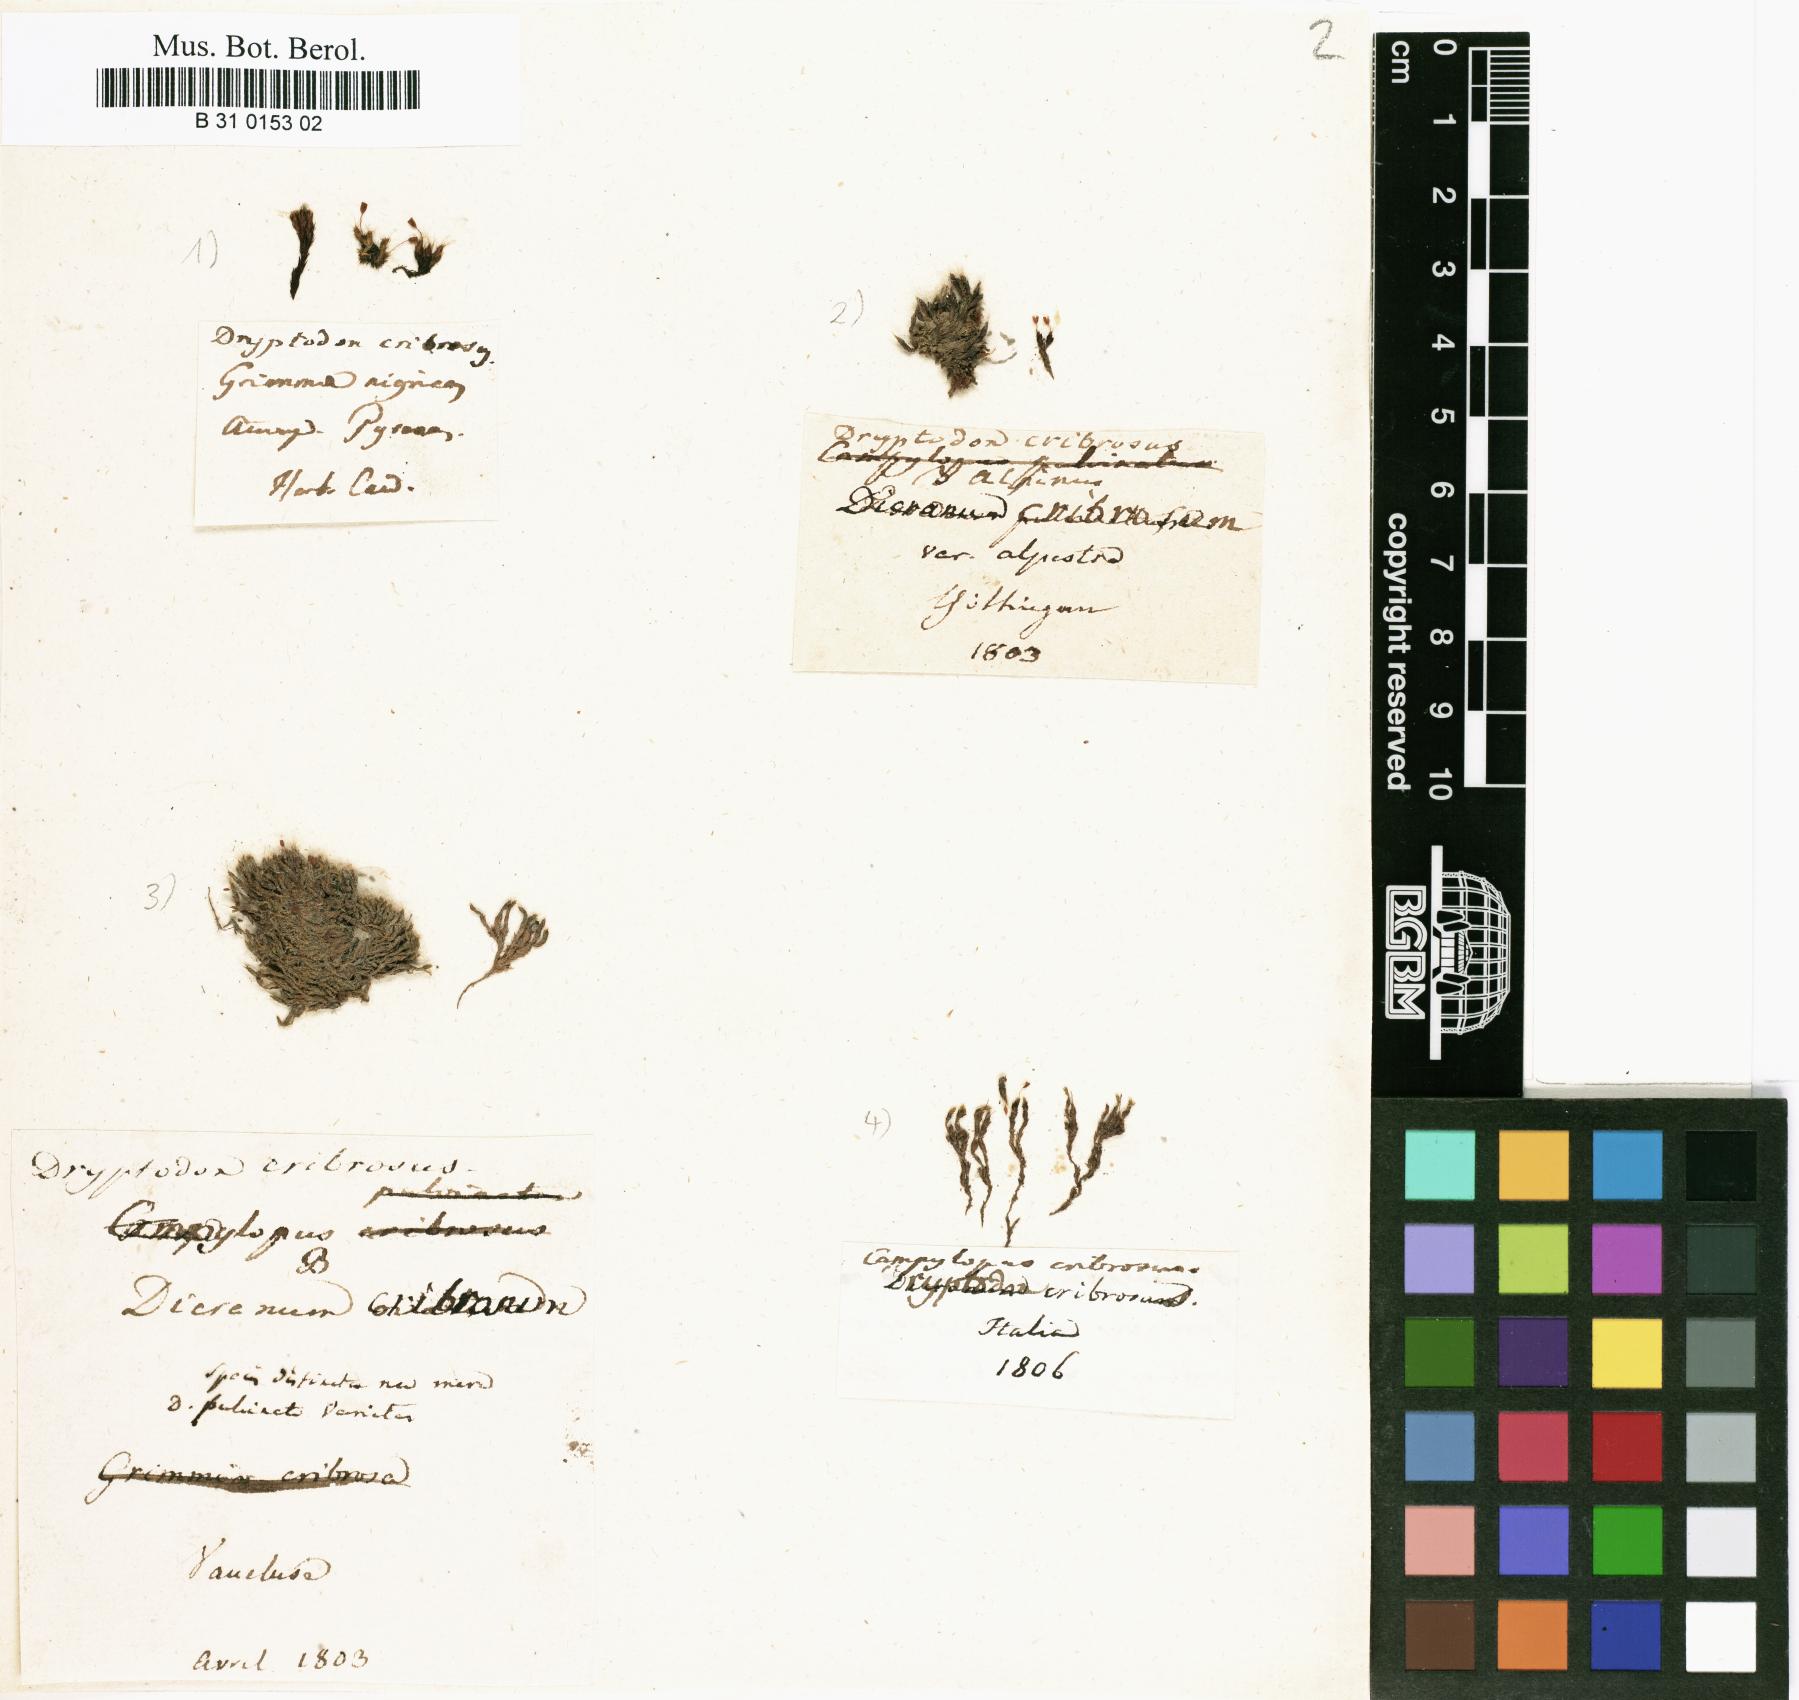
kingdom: Plantae
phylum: Bryophyta
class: Bryopsida
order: Grimmiales
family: Grimmiaceae
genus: Grimmia
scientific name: Grimmia pulvinata
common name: Grey-cushioned grimmia
